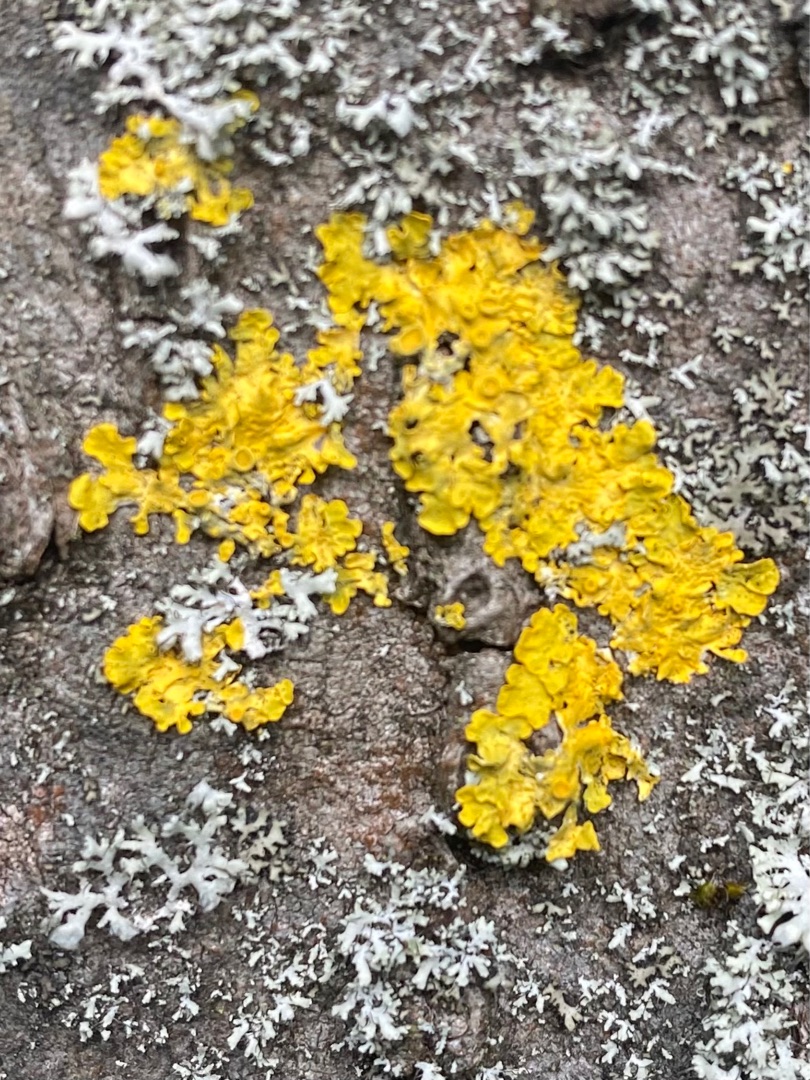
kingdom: Fungi
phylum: Ascomycota
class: Lecanoromycetes
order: Teloschistales
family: Teloschistaceae
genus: Xanthoria
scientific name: Xanthoria parietina
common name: Almindelig væggelav
